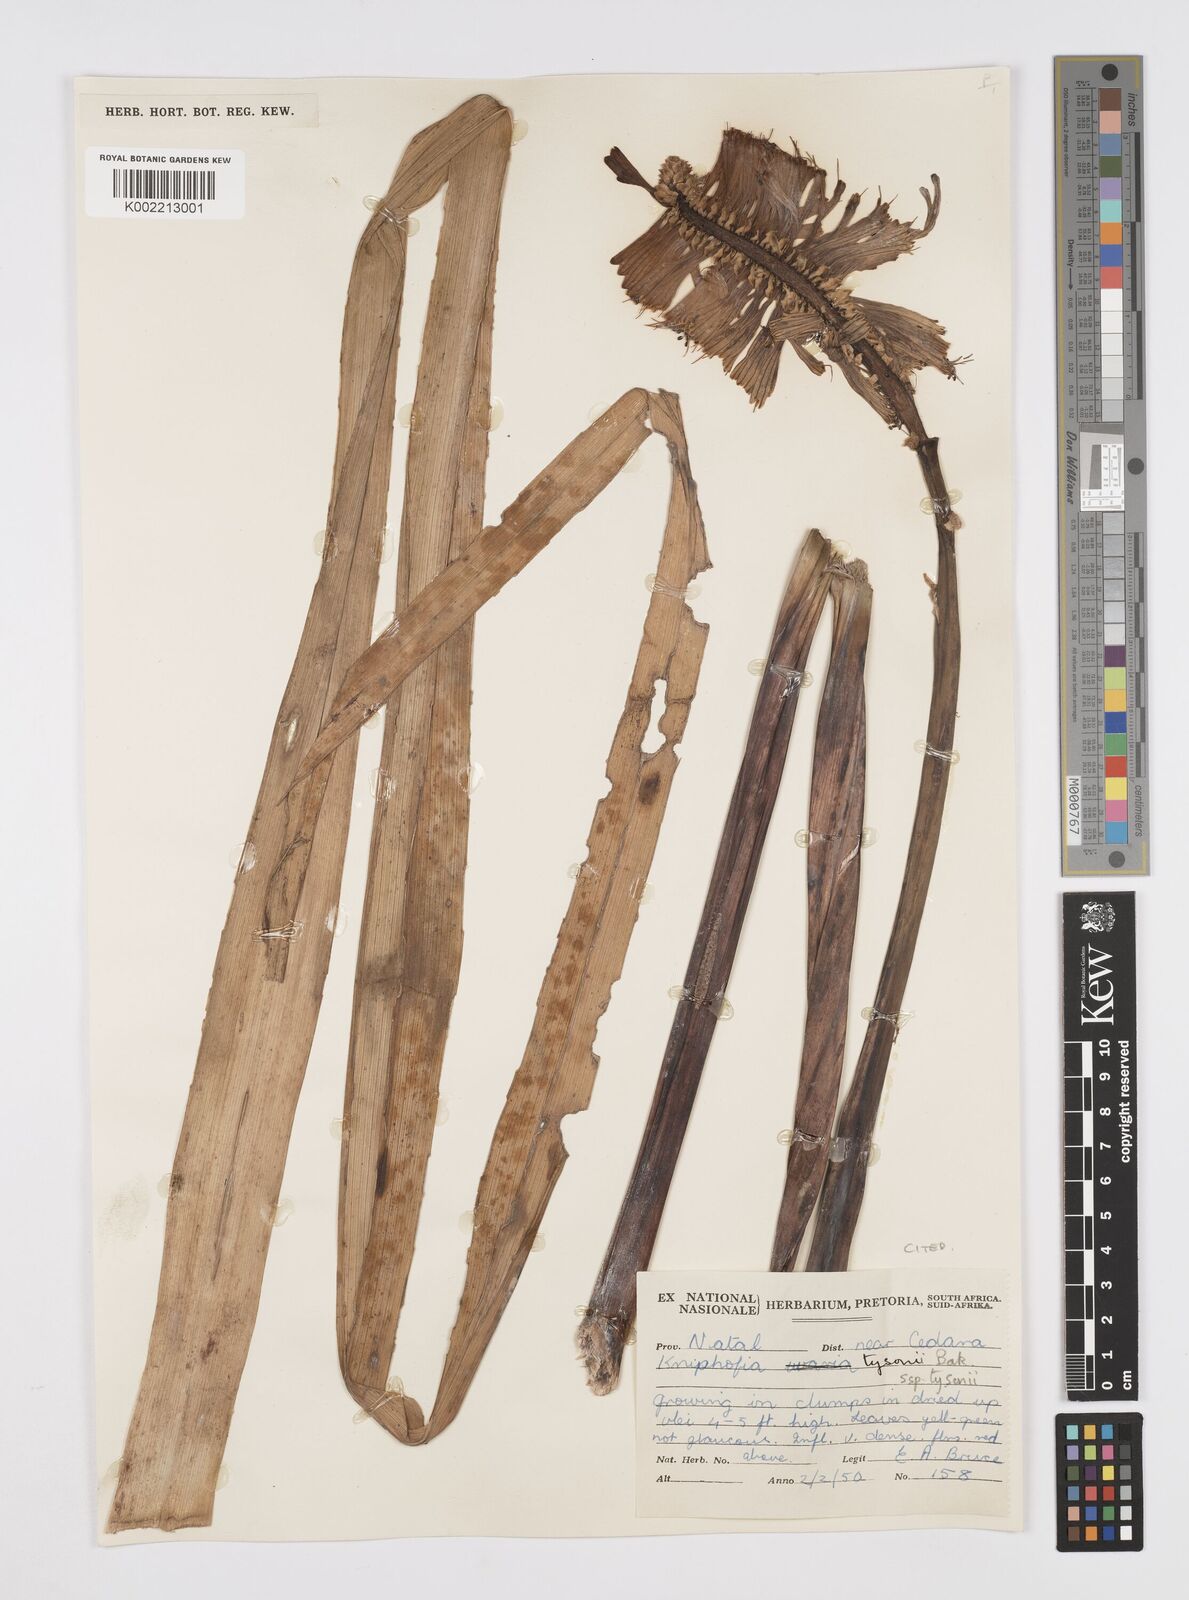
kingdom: Plantae
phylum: Tracheophyta
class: Liliopsida
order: Asparagales
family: Asphodelaceae
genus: Kniphofia
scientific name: Kniphofia tysonii
